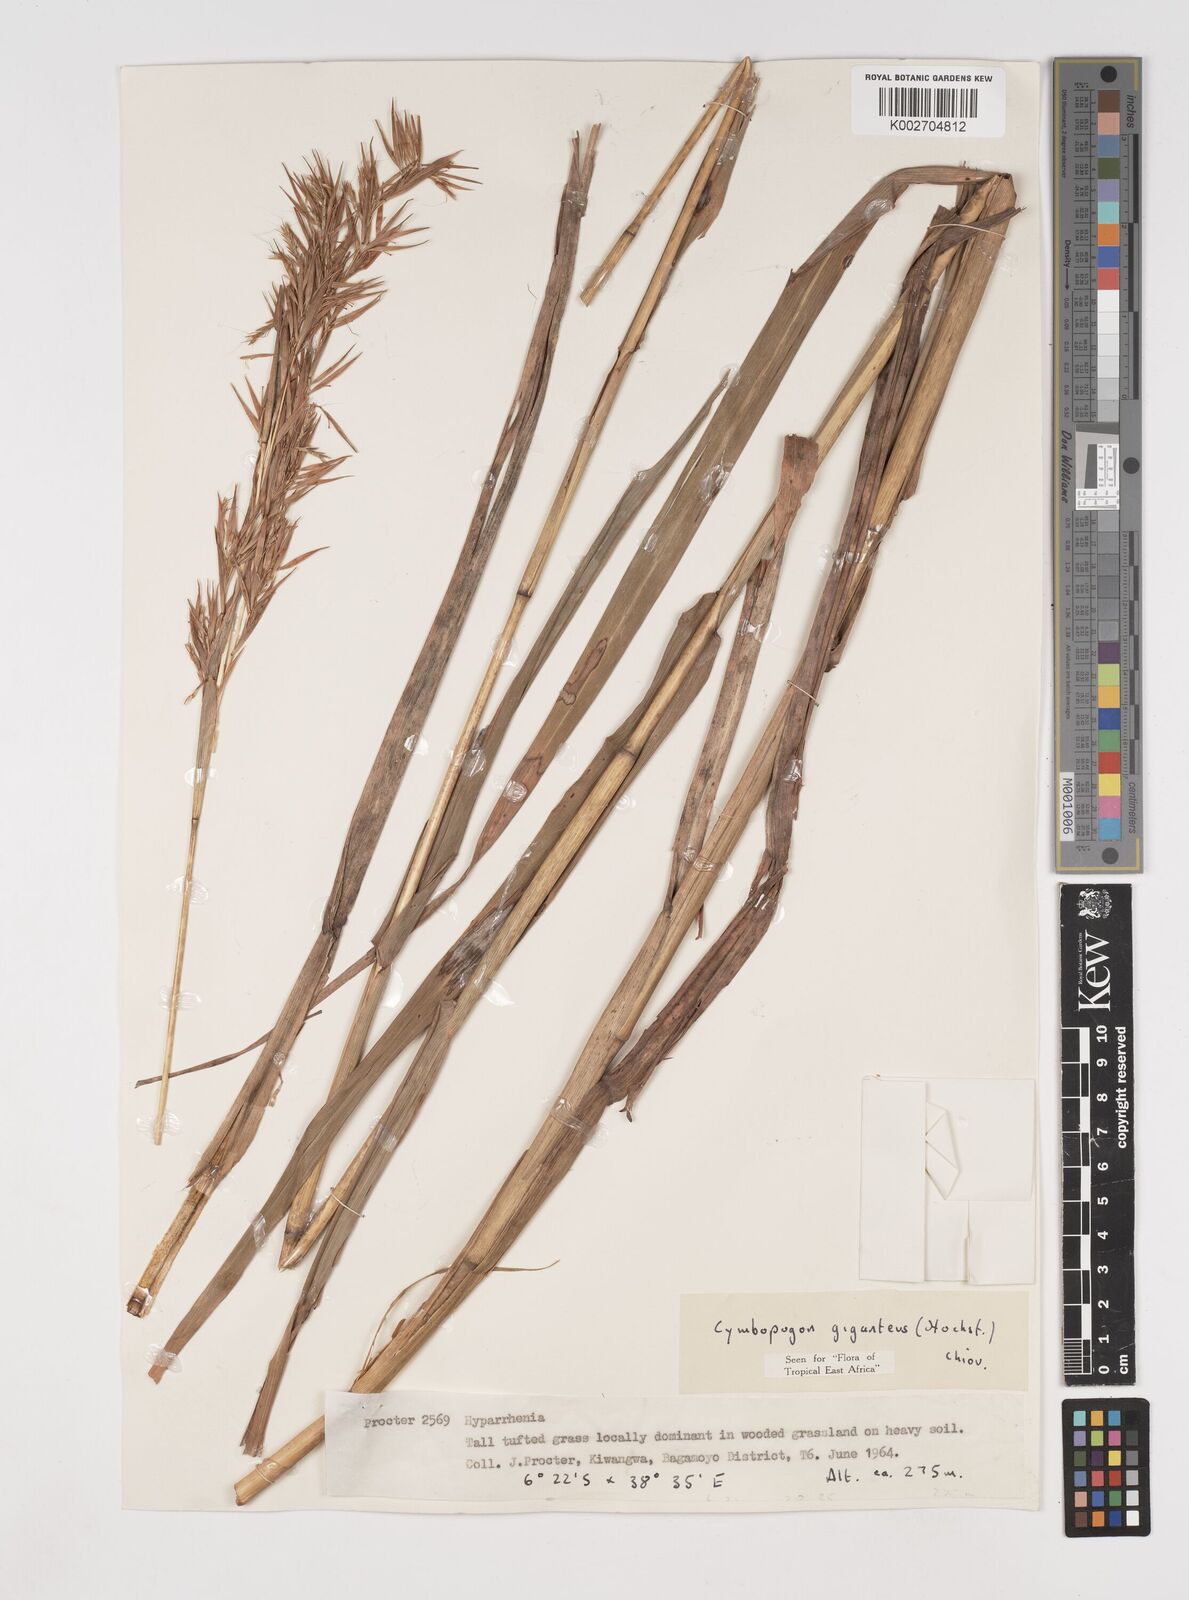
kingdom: Plantae
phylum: Tracheophyta
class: Liliopsida
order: Poales
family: Poaceae
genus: Cymbopogon
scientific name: Cymbopogon giganteus
